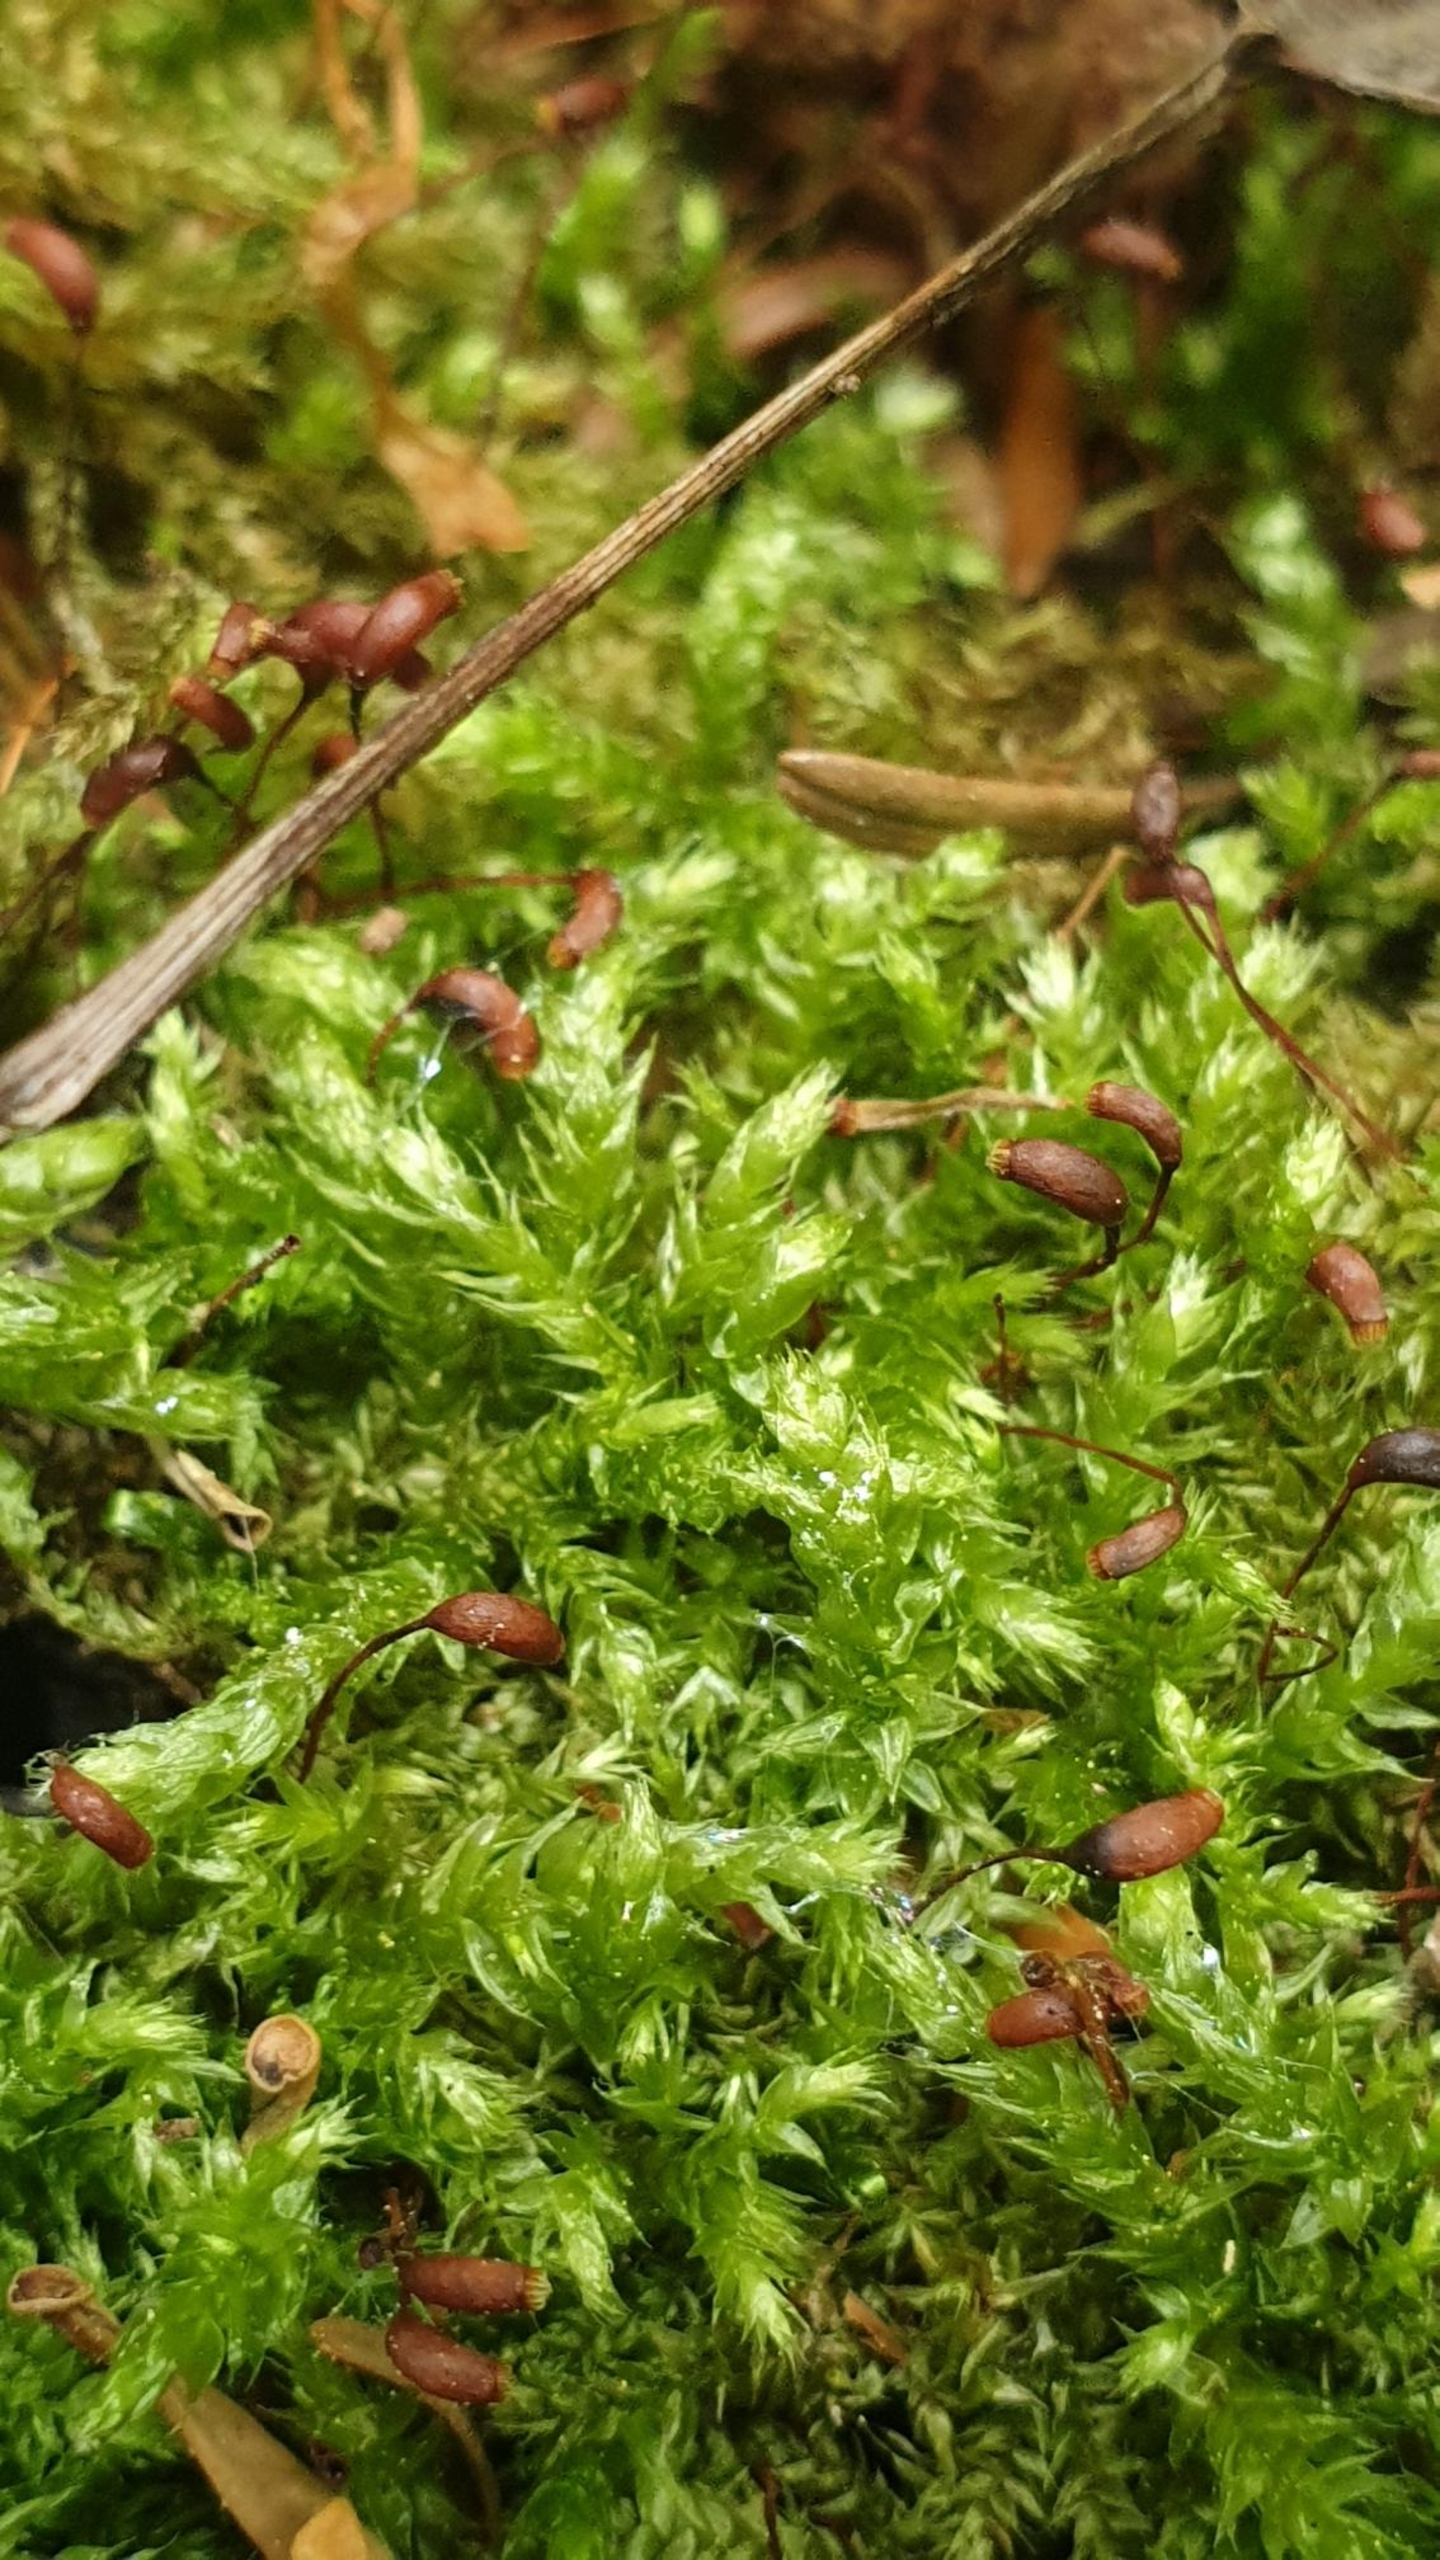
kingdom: Plantae
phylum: Bryophyta
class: Bryopsida
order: Hypnales
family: Brachytheciaceae
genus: Brachythecium
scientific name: Brachythecium rutabulum
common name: Almindelig kortkapsel
